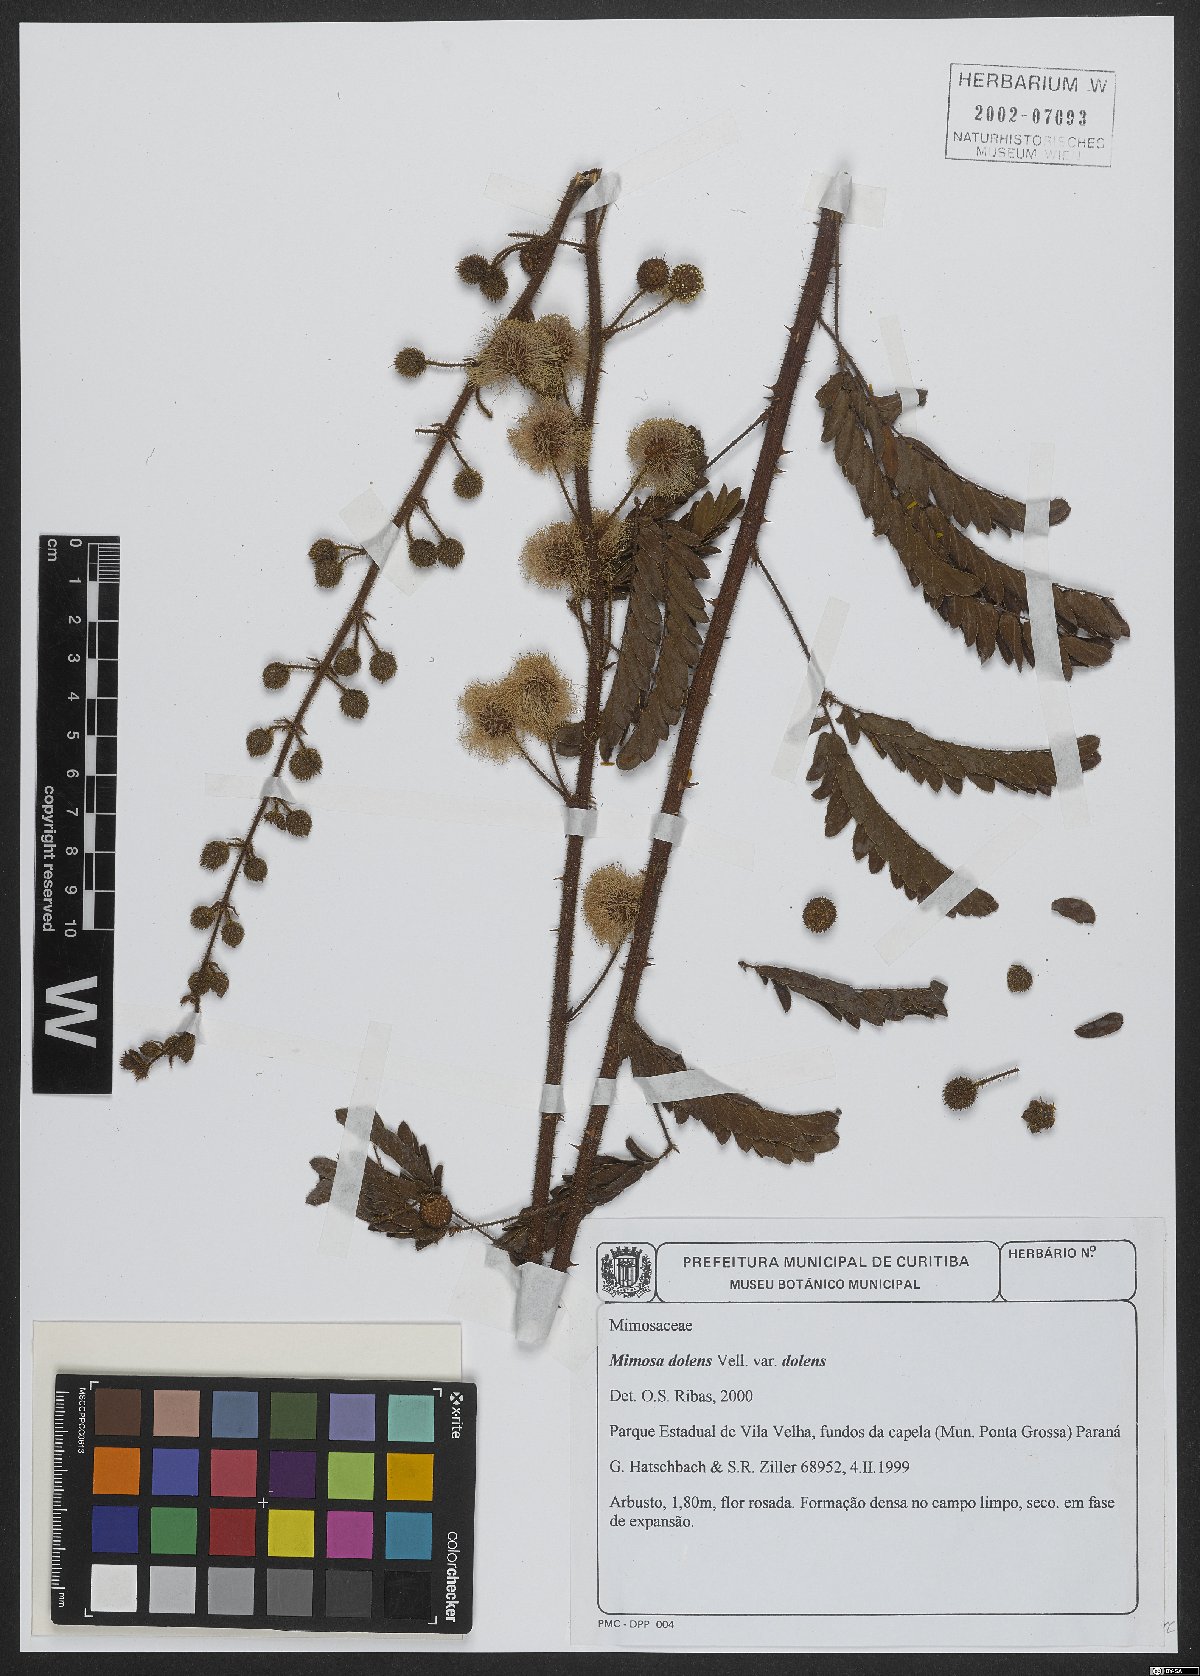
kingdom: Plantae
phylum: Tracheophyta
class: Magnoliopsida
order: Fabales
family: Fabaceae
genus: Mimosa
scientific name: Mimosa dolens
